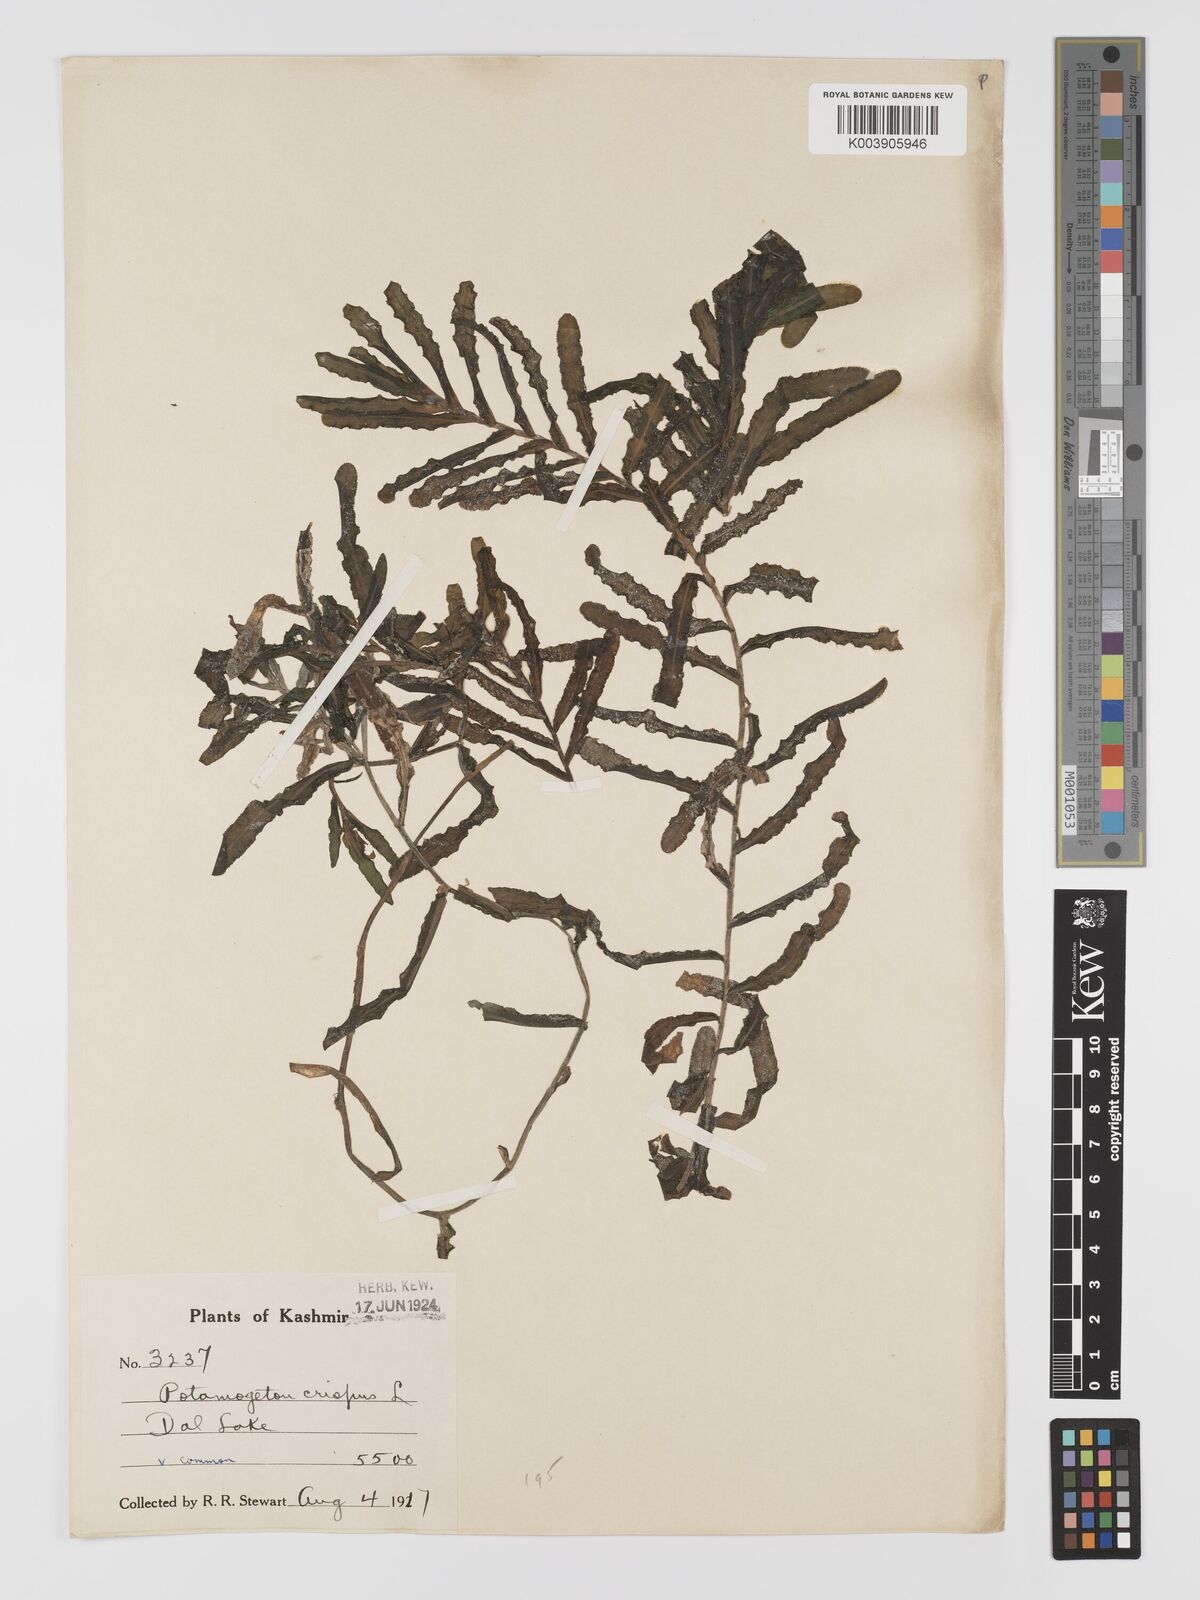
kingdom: Plantae
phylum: Tracheophyta
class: Liliopsida
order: Alismatales
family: Potamogetonaceae
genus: Potamogeton
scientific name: Potamogeton crispus
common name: Curled pondweed
